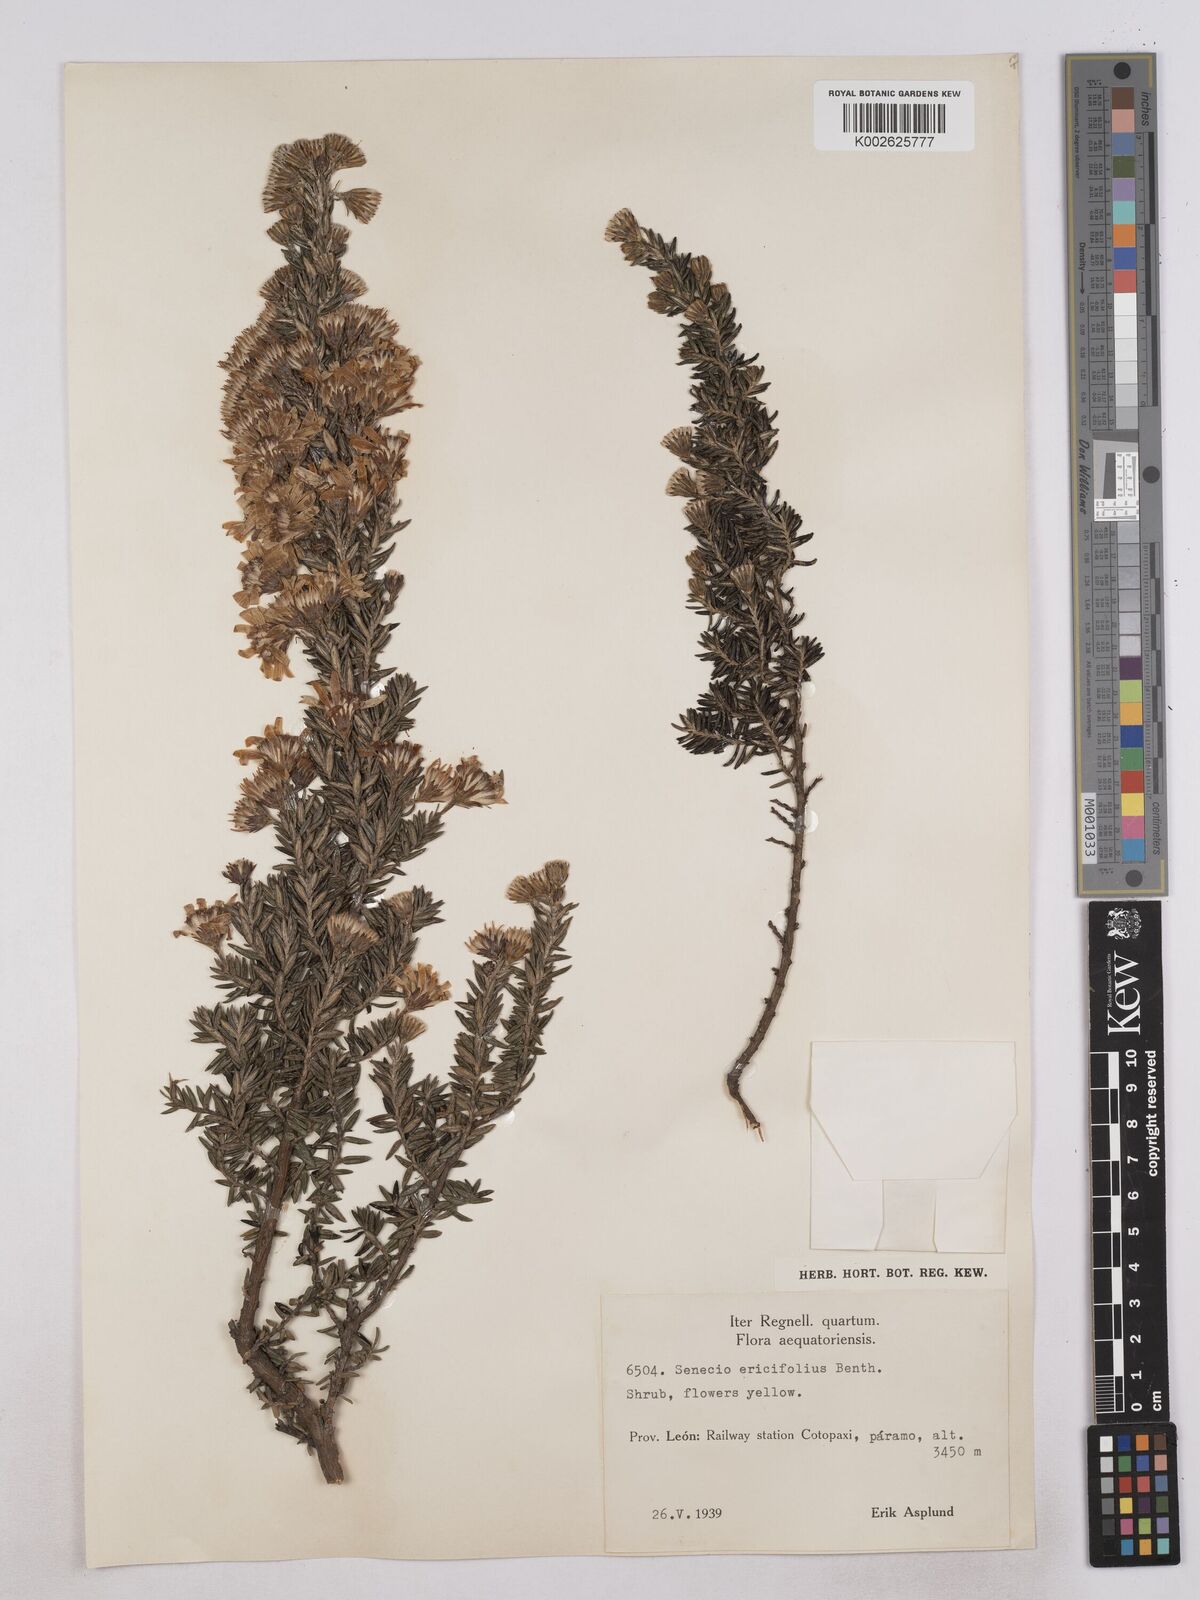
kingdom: Plantae
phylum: Tracheophyta
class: Magnoliopsida
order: Asterales
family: Asteraceae
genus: Monticalia
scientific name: Monticalia peruviana
